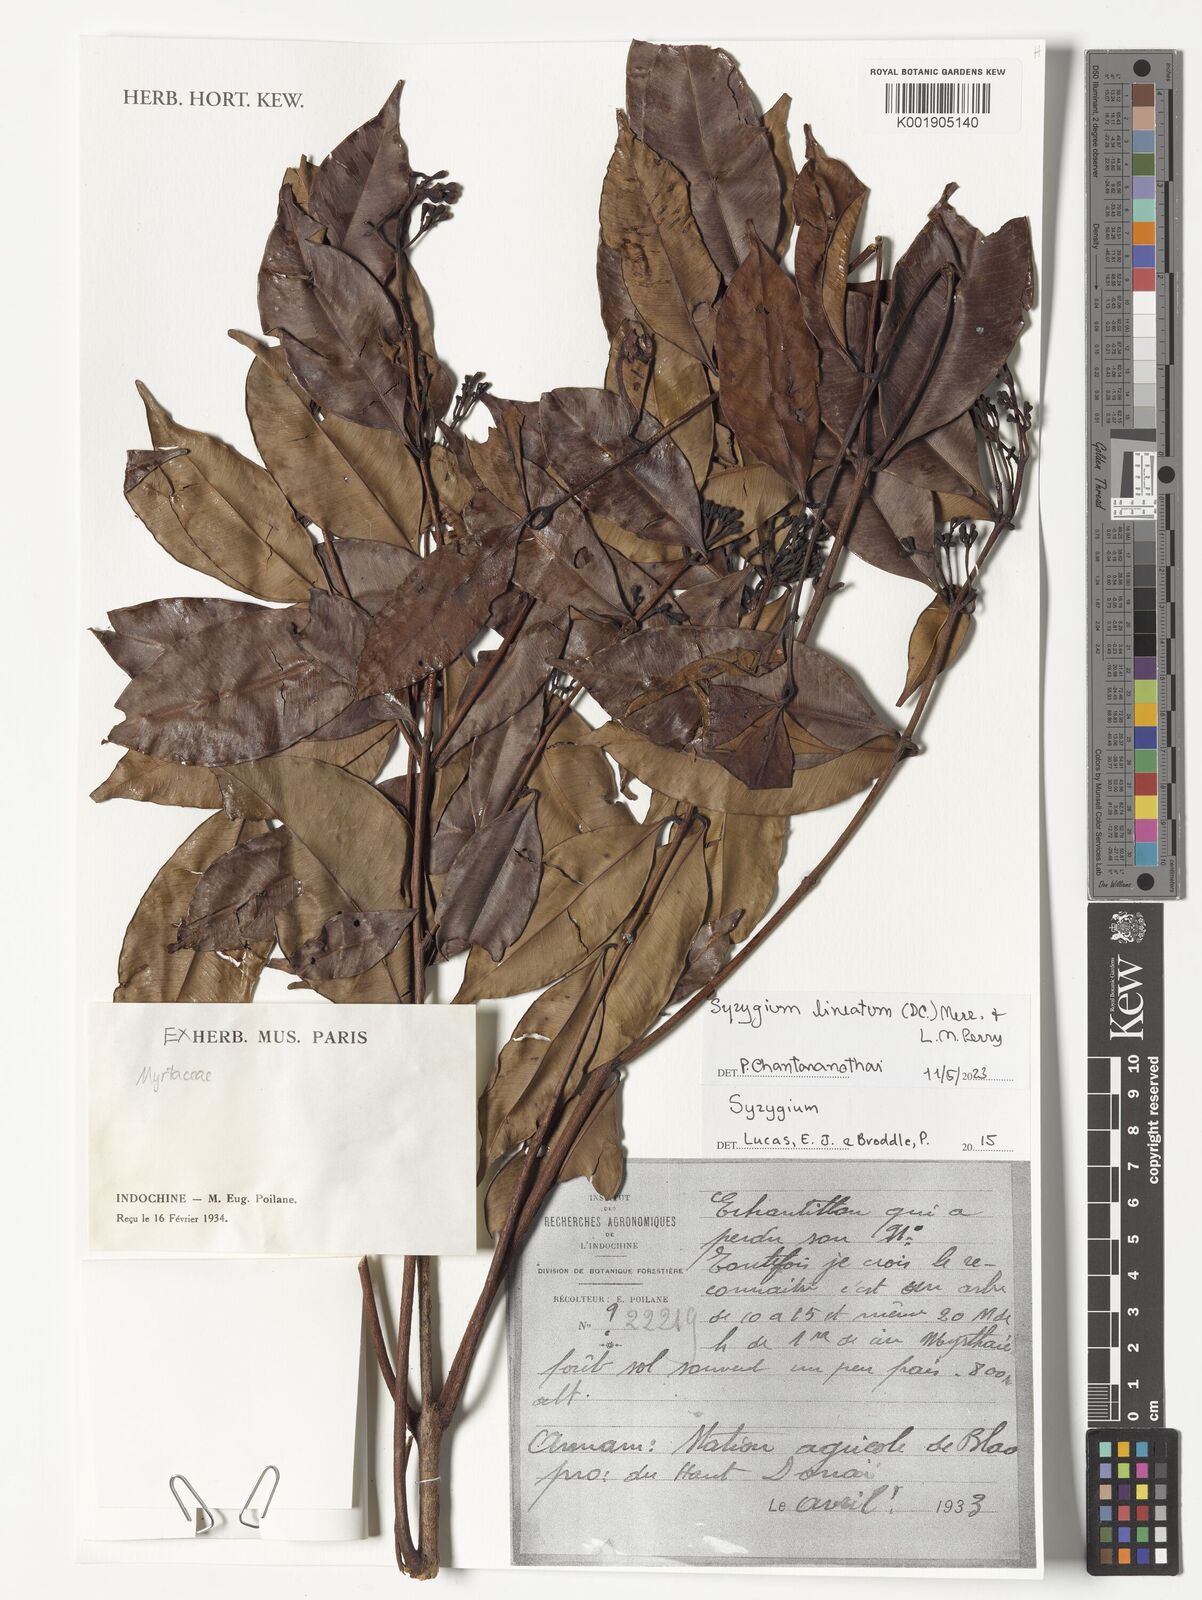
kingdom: Plantae
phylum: Tracheophyta
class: Magnoliopsida
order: Myrtales
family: Myrtaceae
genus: Syzygium
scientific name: Syzygium lineatum
